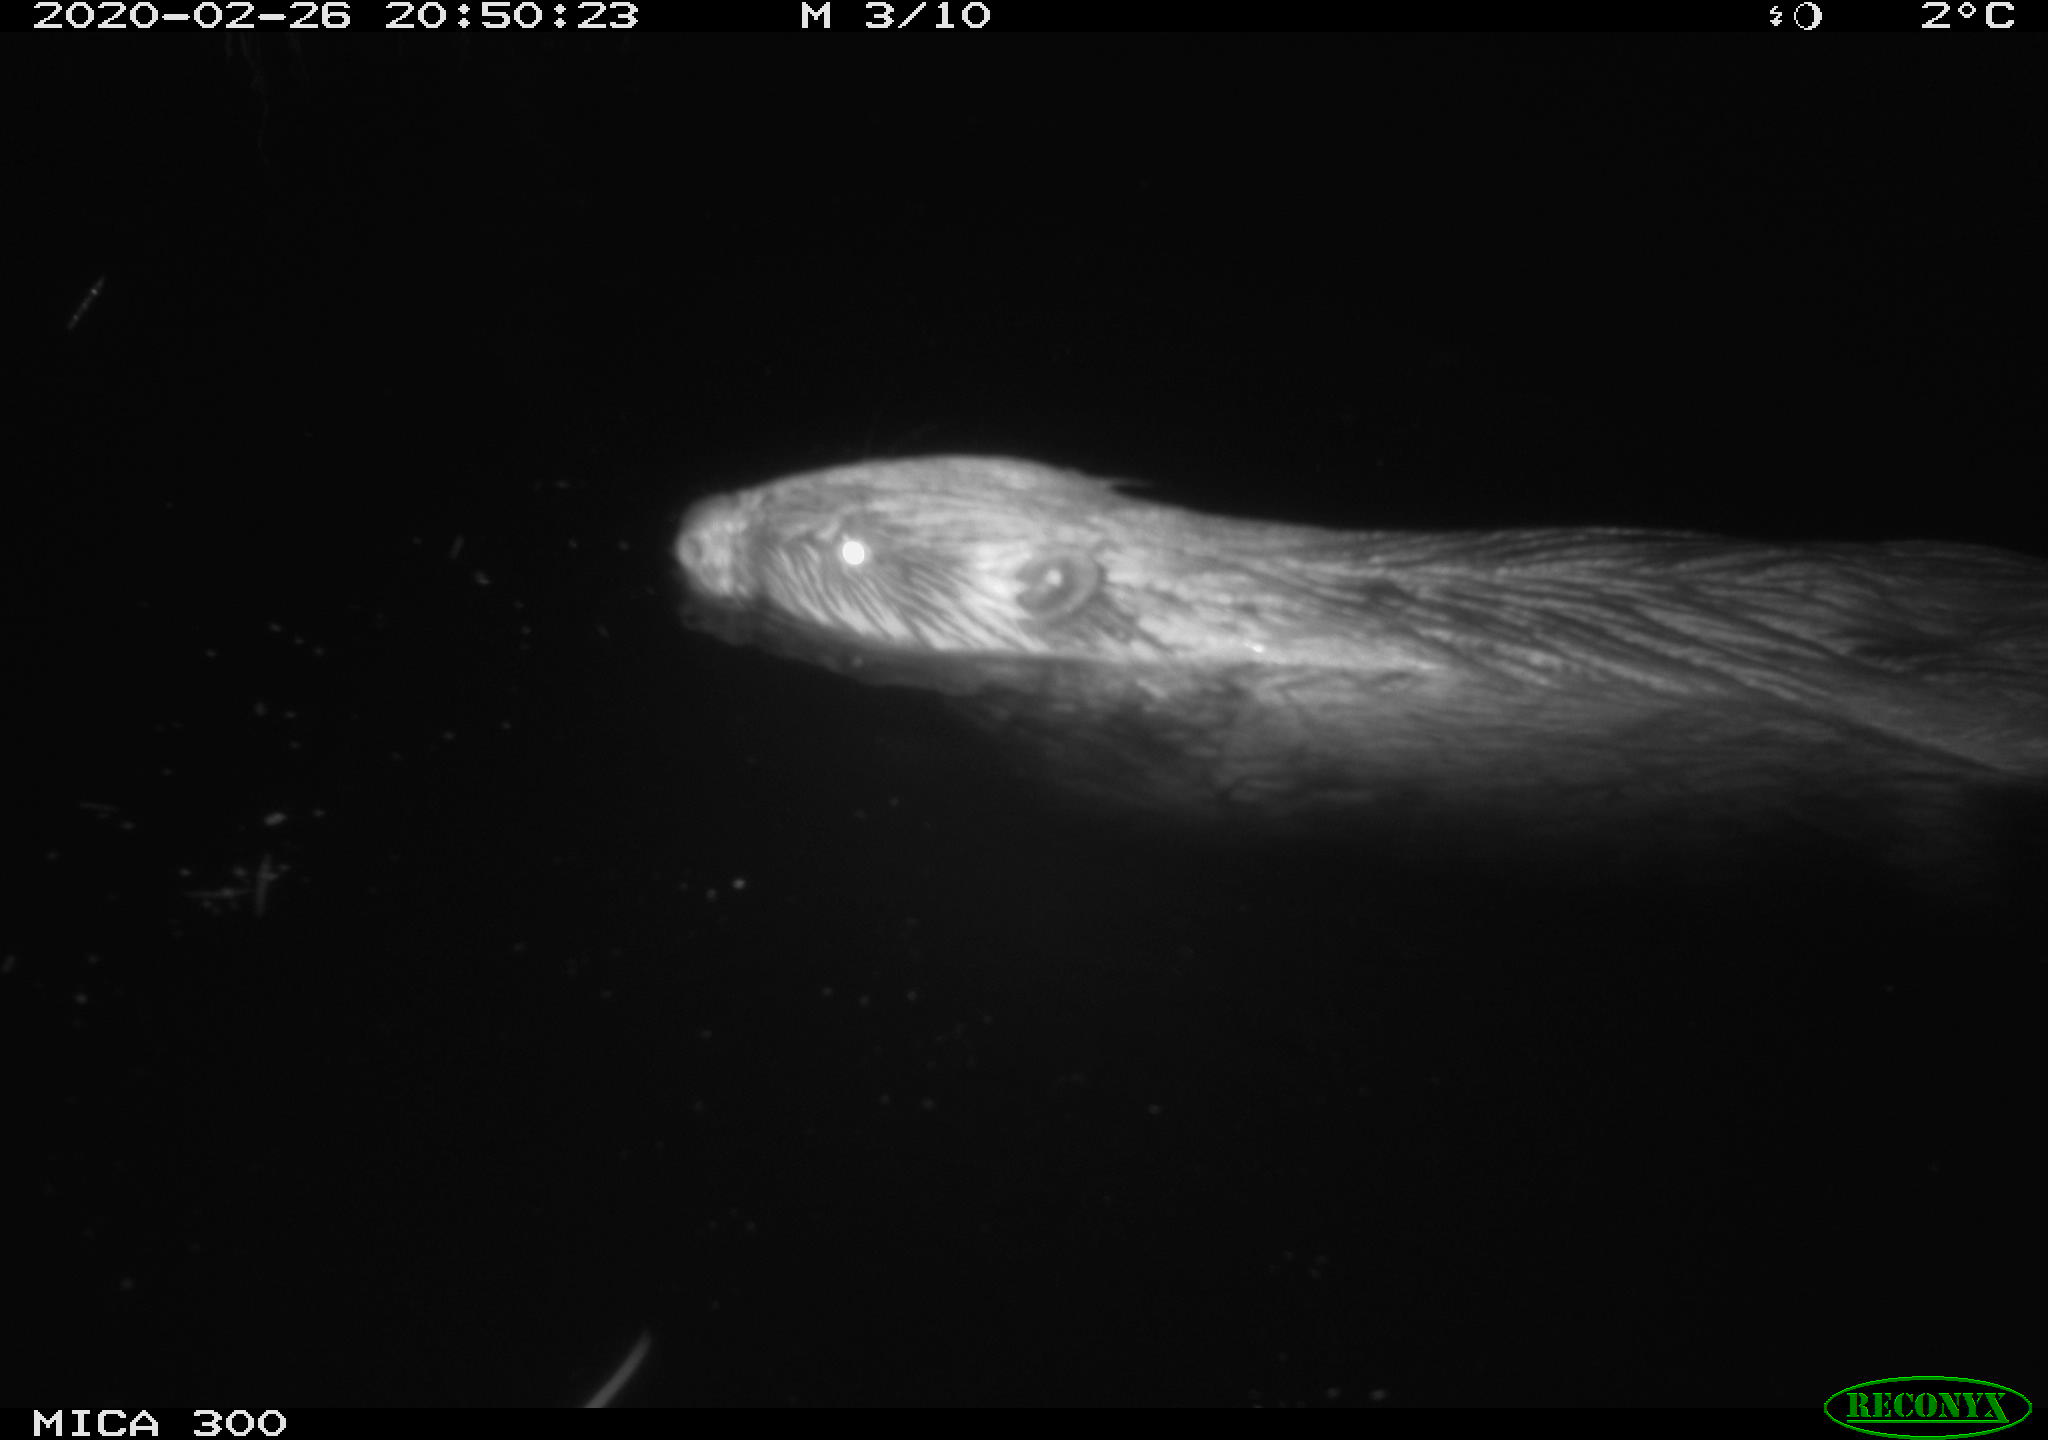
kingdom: Animalia
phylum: Chordata
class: Mammalia
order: Rodentia
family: Castoridae
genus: Castor
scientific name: Castor fiber
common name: Eurasian beaver
